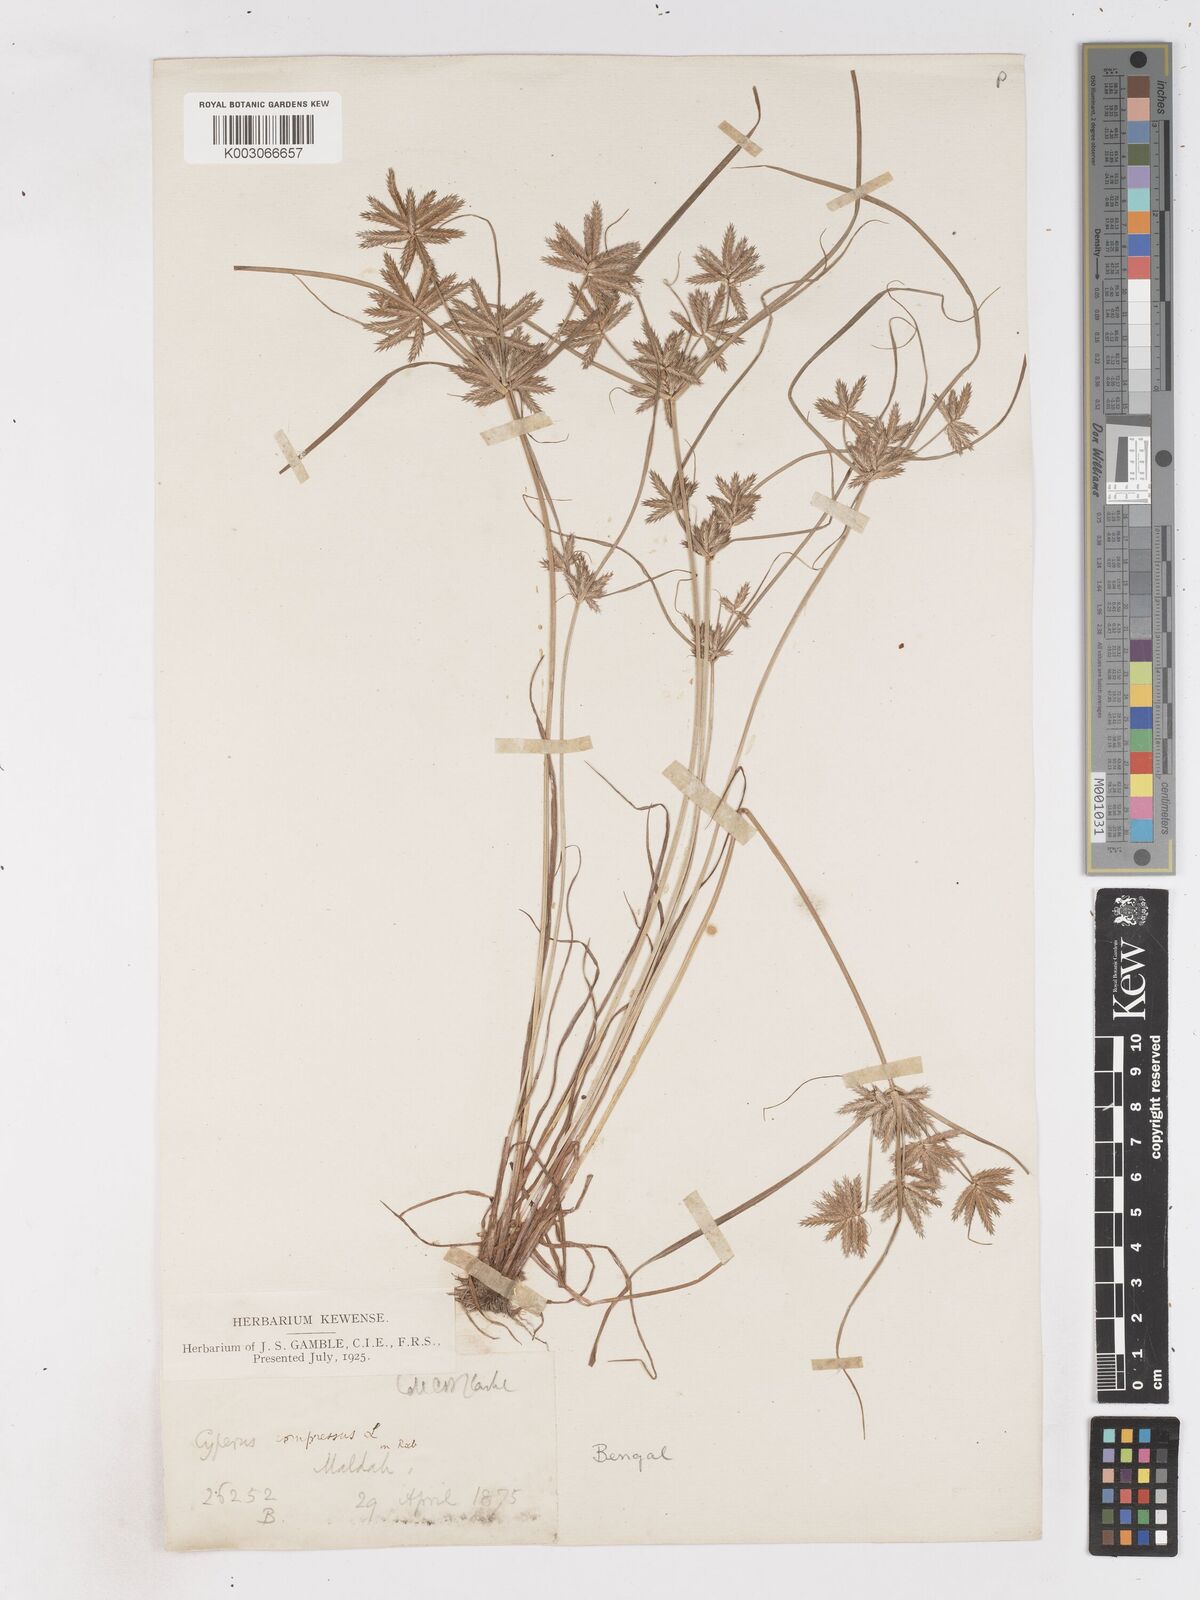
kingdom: Plantae
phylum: Tracheophyta
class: Liliopsida
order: Poales
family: Cyperaceae
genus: Cyperus
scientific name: Cyperus compressus
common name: Poorland flatsedge
